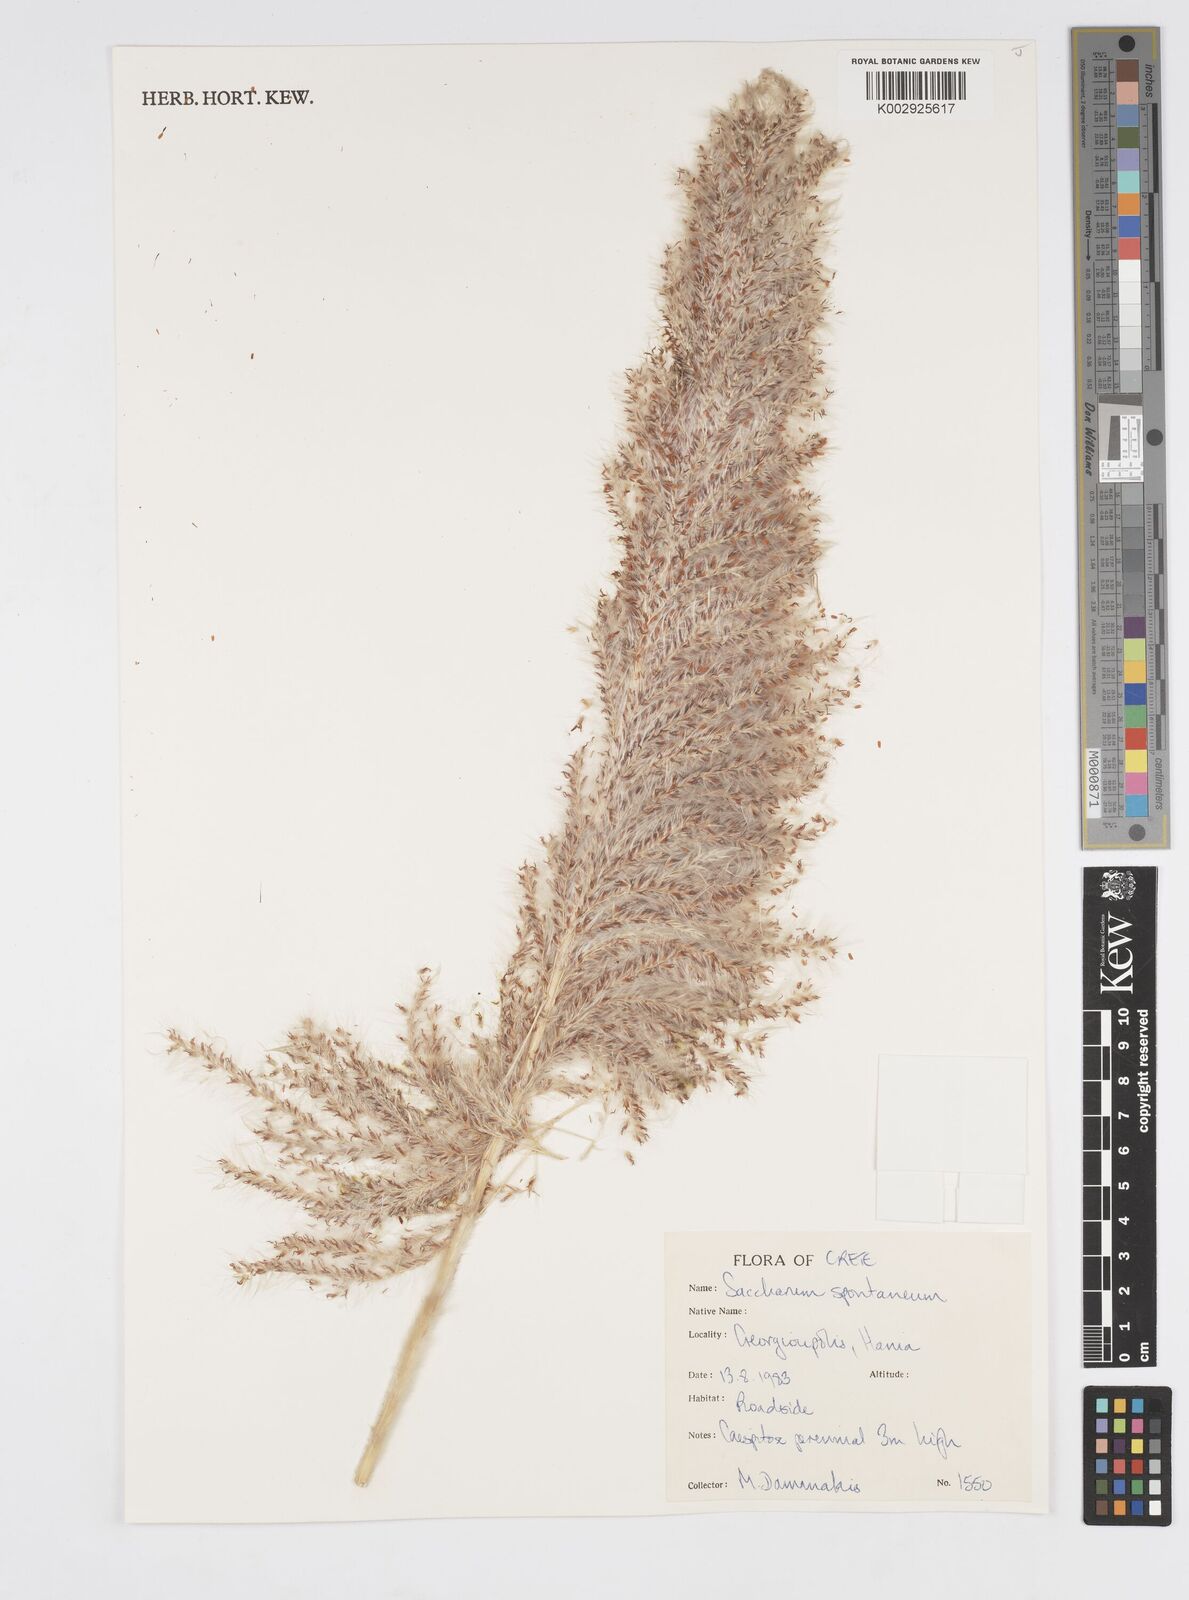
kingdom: Plantae
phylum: Tracheophyta
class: Liliopsida
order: Poales
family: Poaceae
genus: Saccharum
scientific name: Saccharum spontaneum
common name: Wild sugarcane
